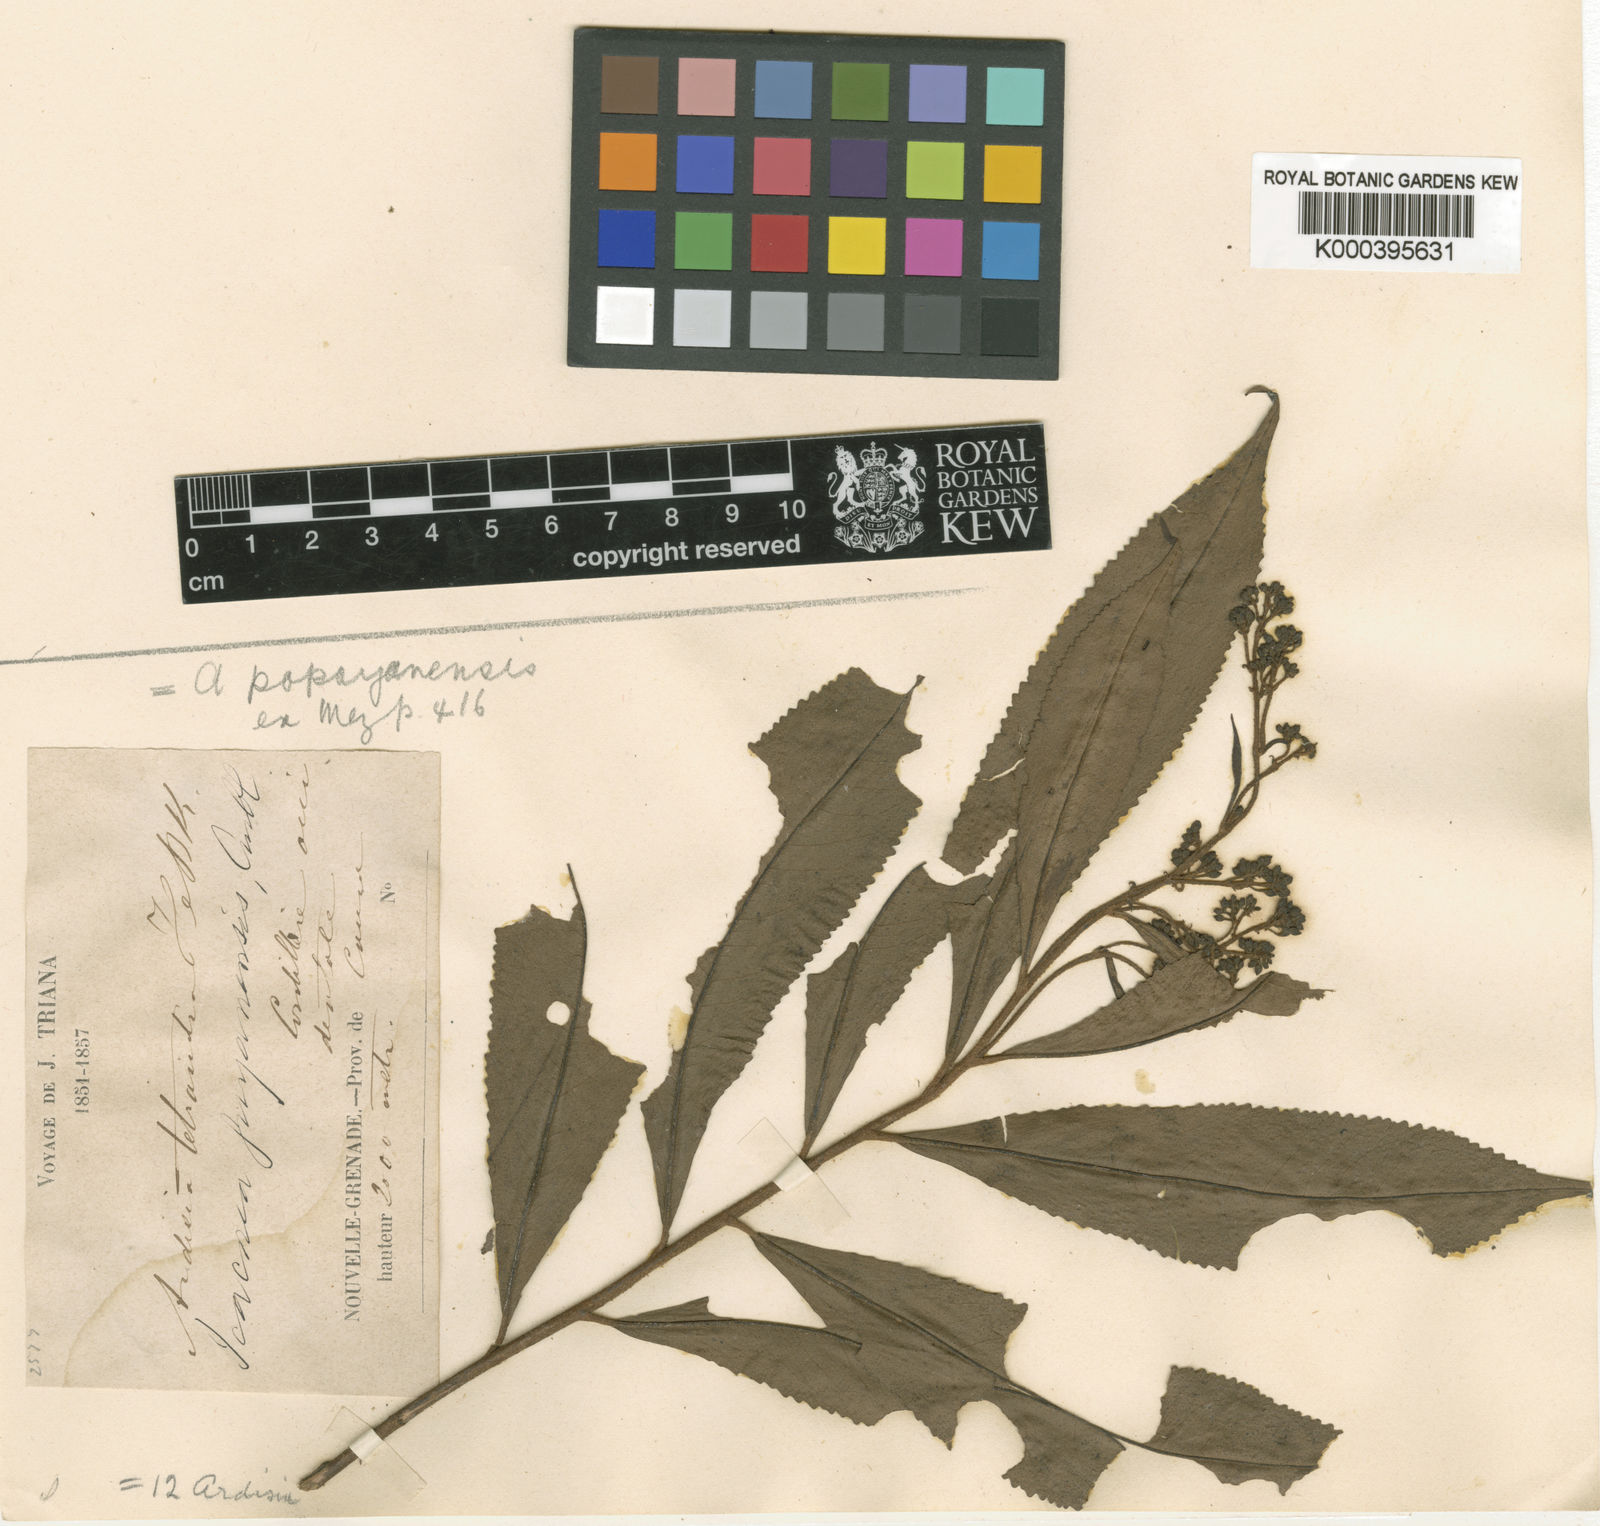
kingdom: Plantae
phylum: Tracheophyta
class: Magnoliopsida
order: Ericales
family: Primulaceae
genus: Ardisia
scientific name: Ardisia popayanensis
